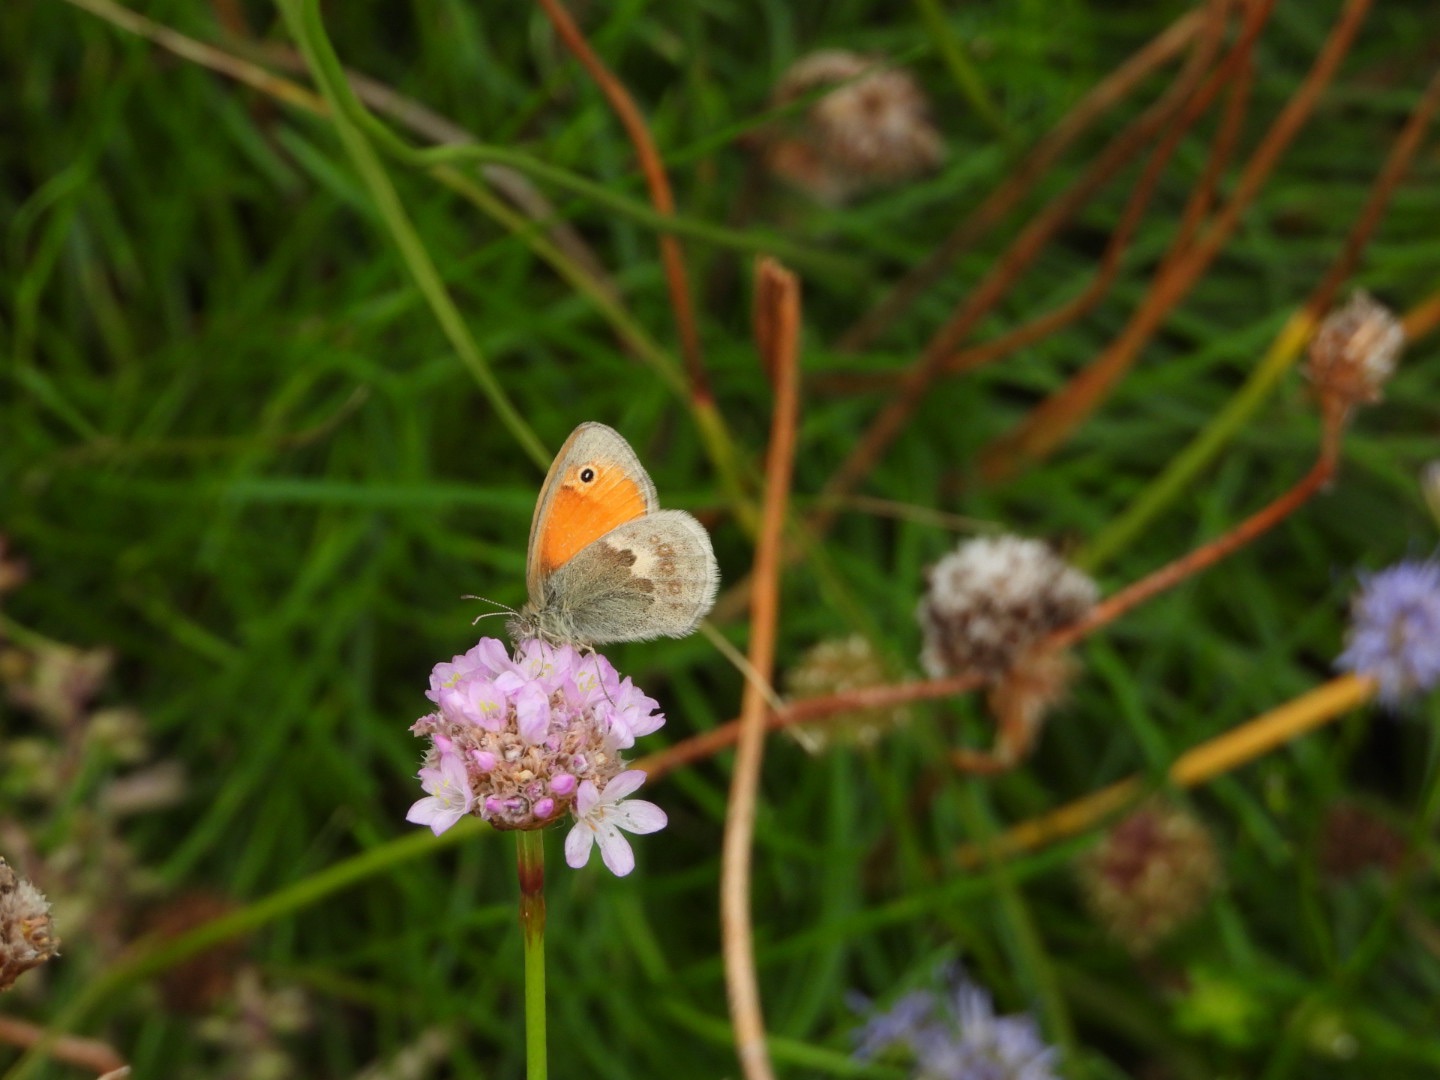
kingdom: Animalia
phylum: Arthropoda
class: Insecta
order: Lepidoptera
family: Nymphalidae
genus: Coenonympha
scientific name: Coenonympha pamphilus
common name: Okkergul randøje
